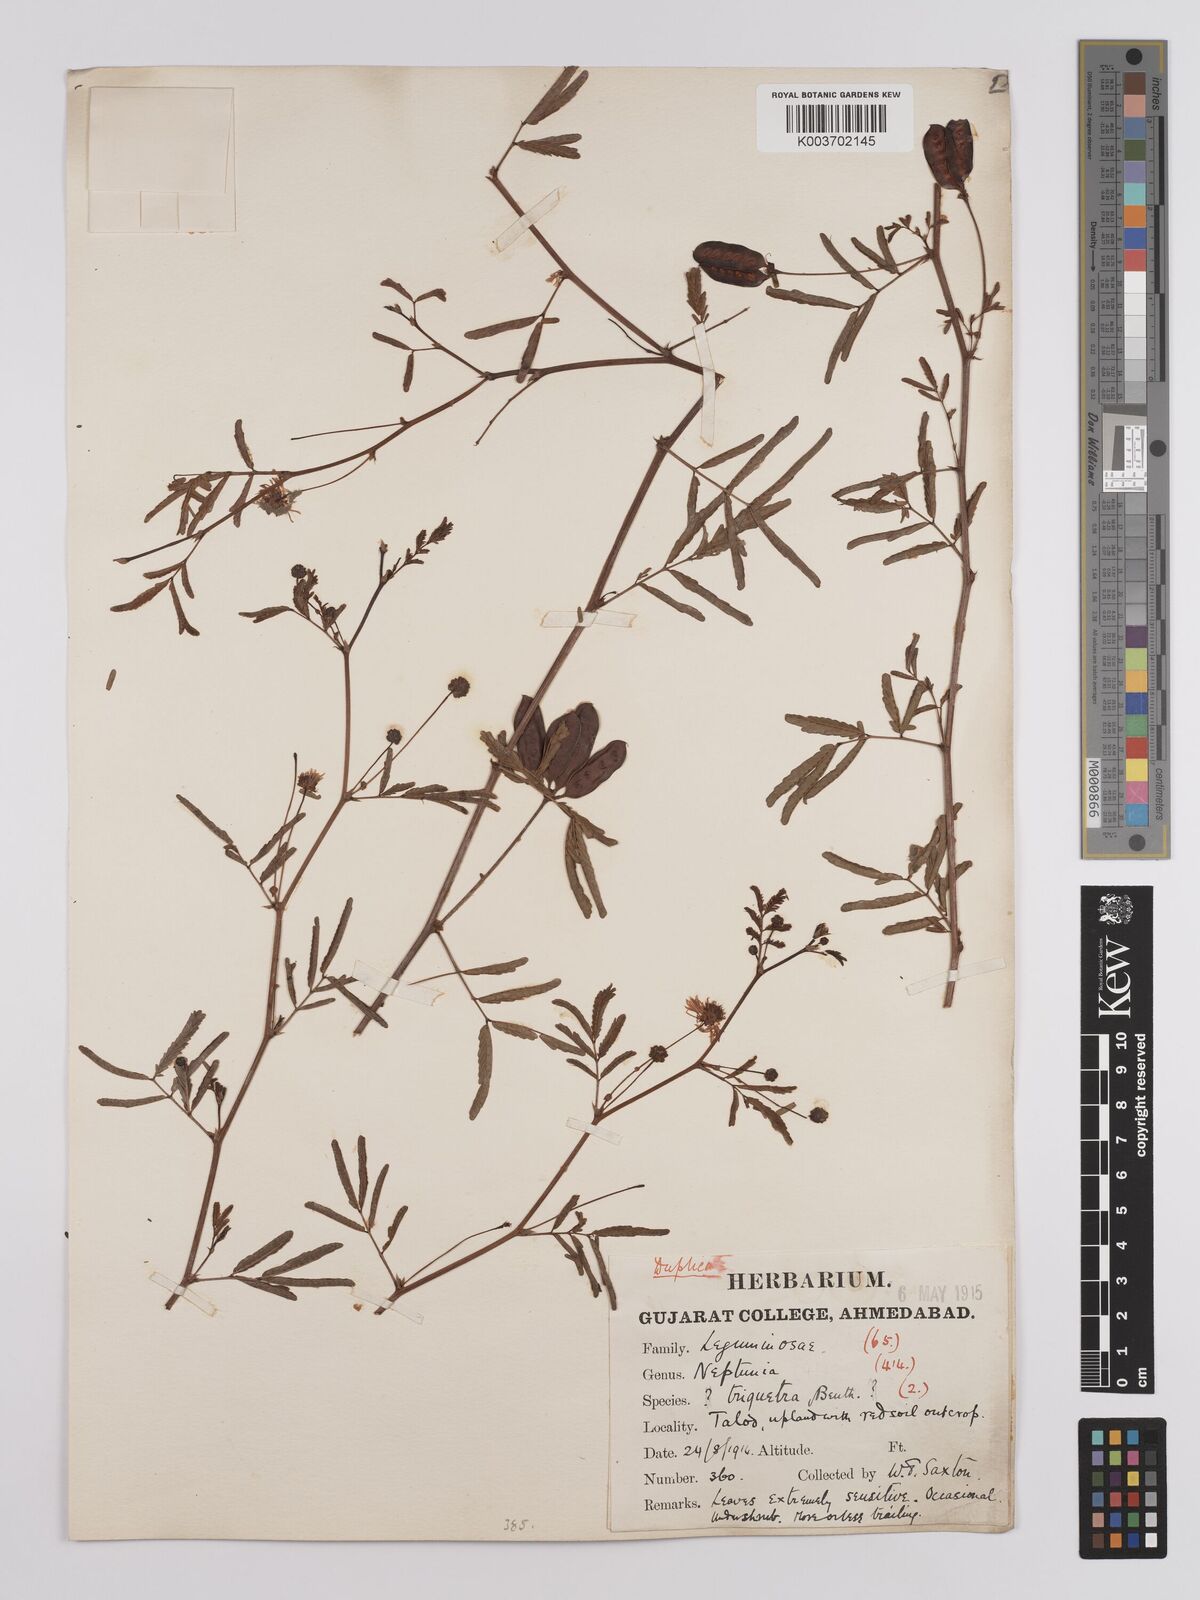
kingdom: Plantae
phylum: Tracheophyta
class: Magnoliopsida
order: Fabales
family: Fabaceae
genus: Neptunia
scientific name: Neptunia triquetra
